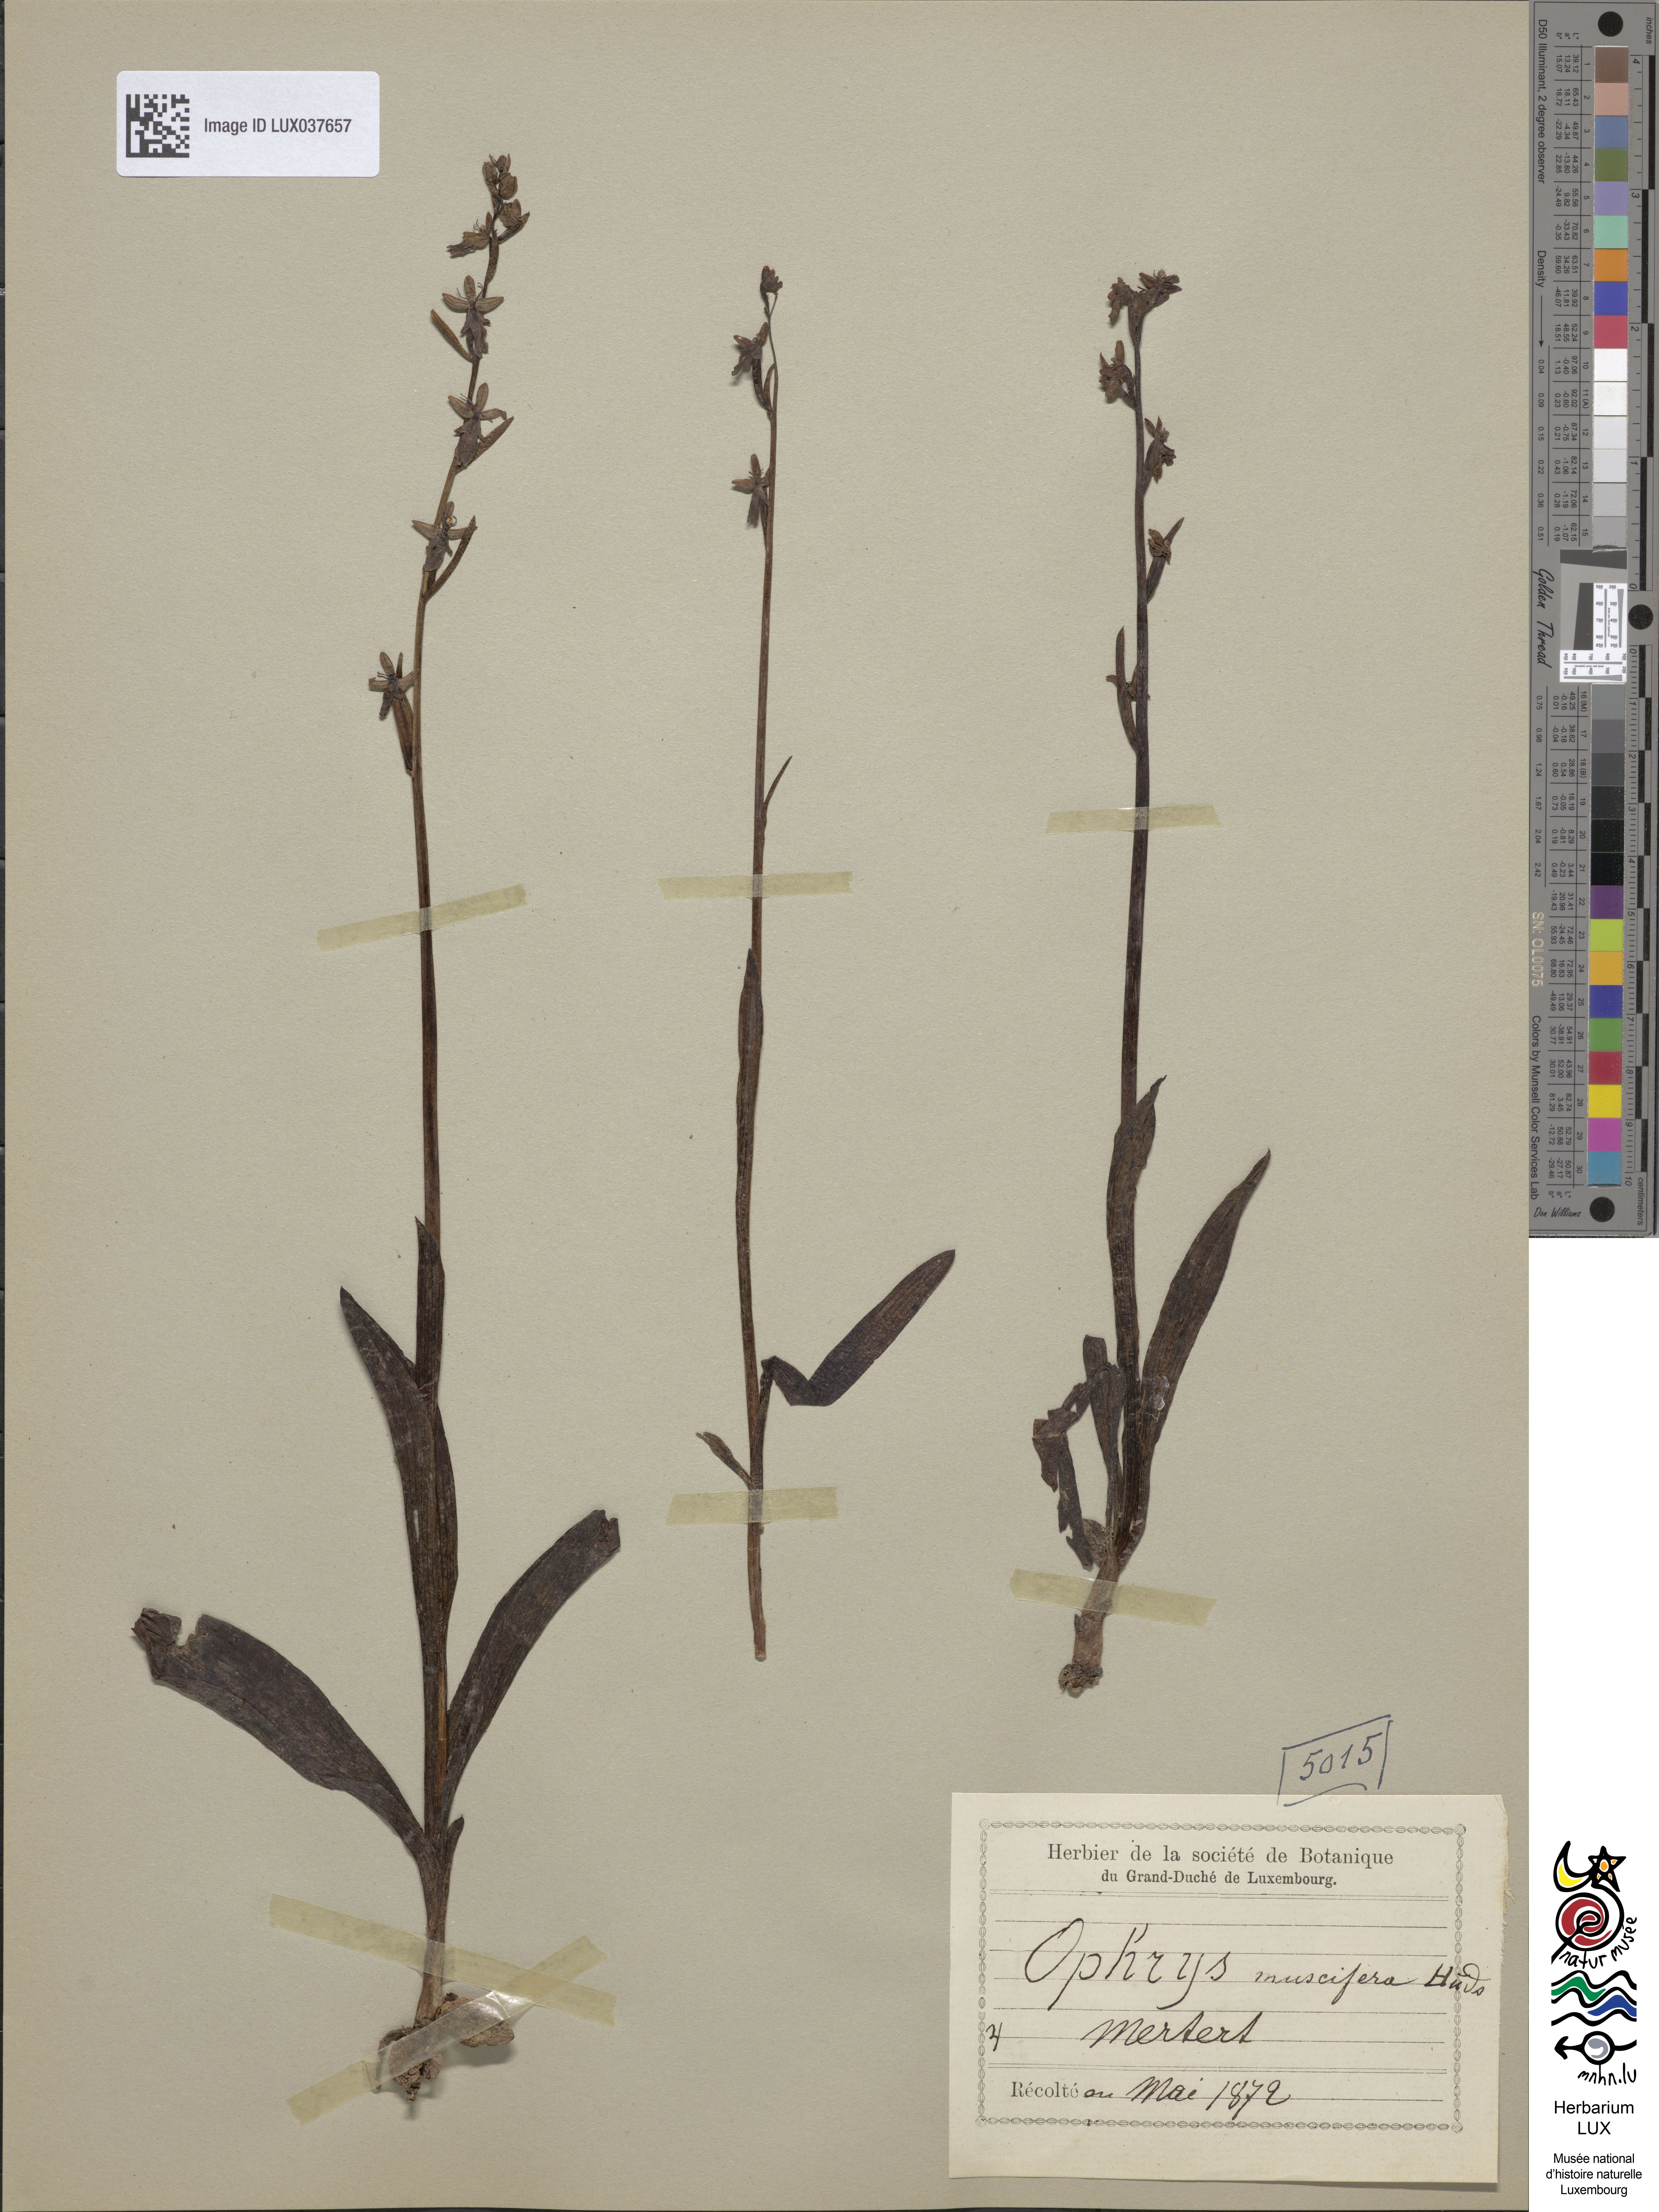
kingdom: Plantae
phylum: Tracheophyta
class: Liliopsida
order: Asparagales
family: Orchidaceae
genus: Ophrys
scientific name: Ophrys insectifera
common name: Fly orchid
